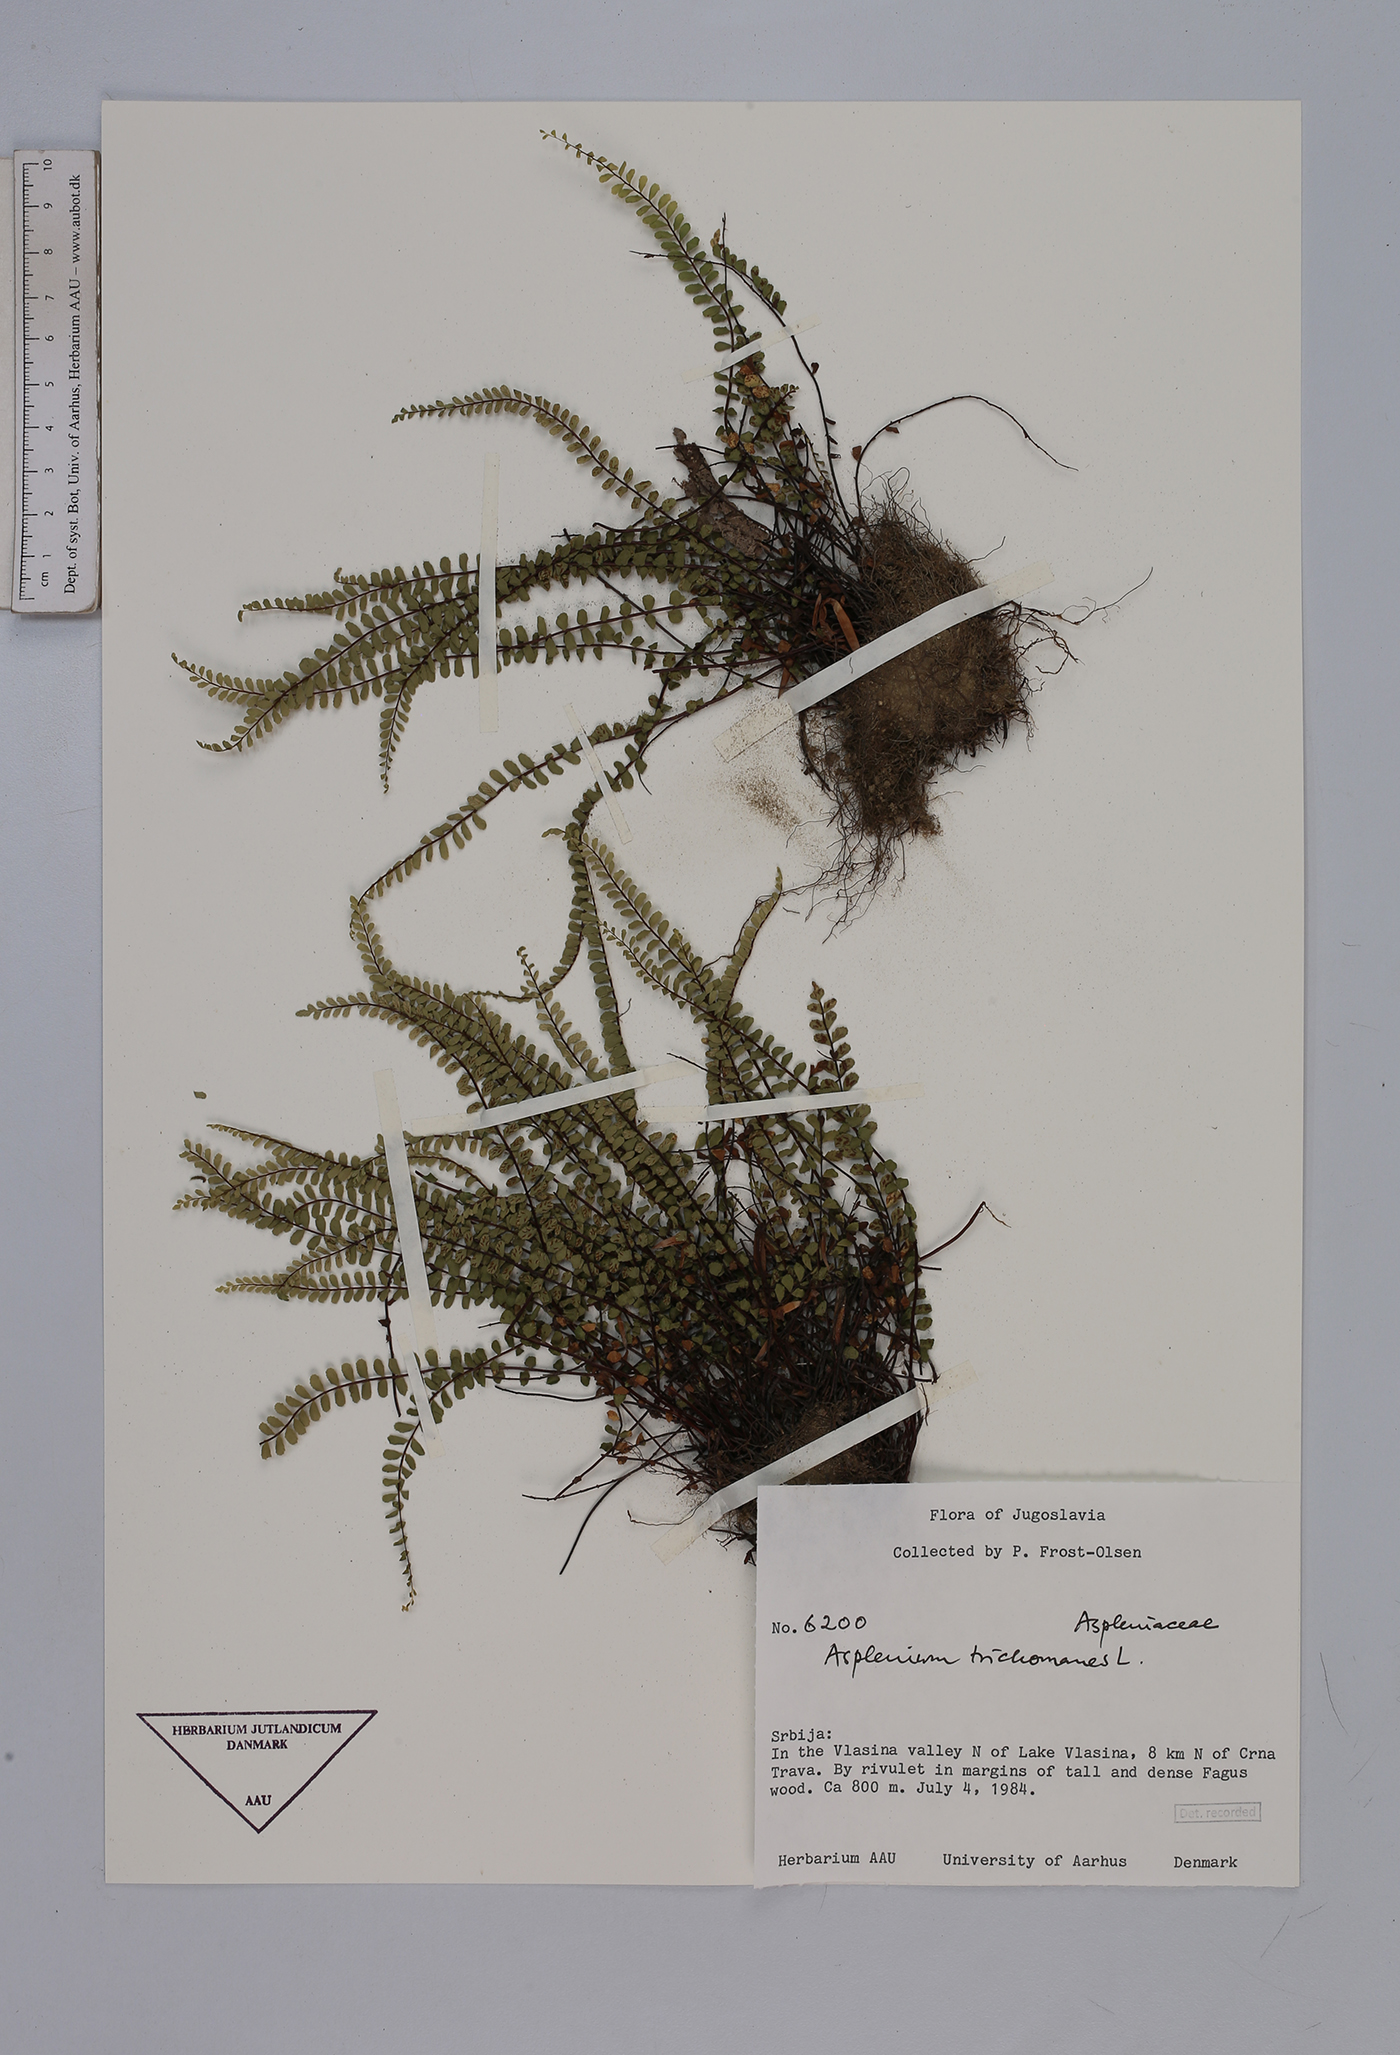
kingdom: Plantae
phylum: Tracheophyta
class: Polypodiopsida
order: Polypodiales
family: Aspleniaceae
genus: Asplenium
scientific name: Asplenium trichomanes
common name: Maidenhair spleenwort
